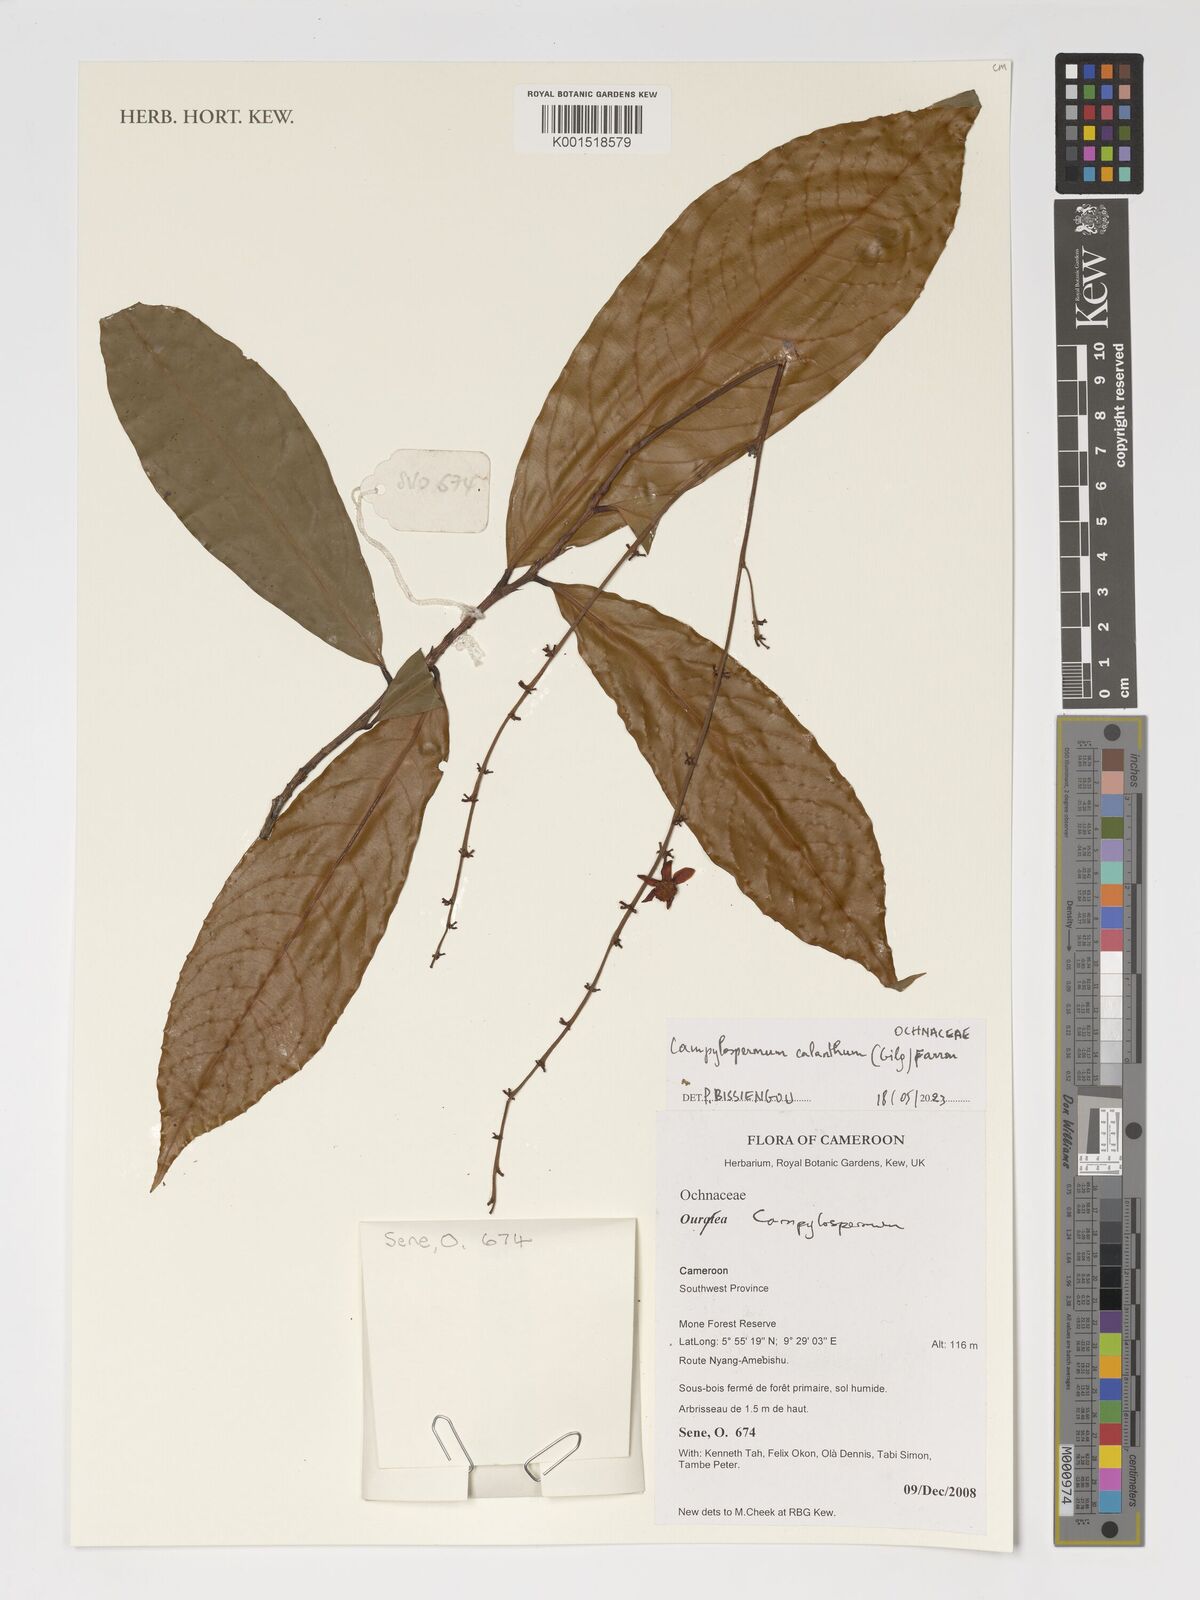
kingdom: Plantae
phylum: Tracheophyta
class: Magnoliopsida
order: Malpighiales
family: Ochnaceae
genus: Campylospermum
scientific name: Campylospermum calanthum
